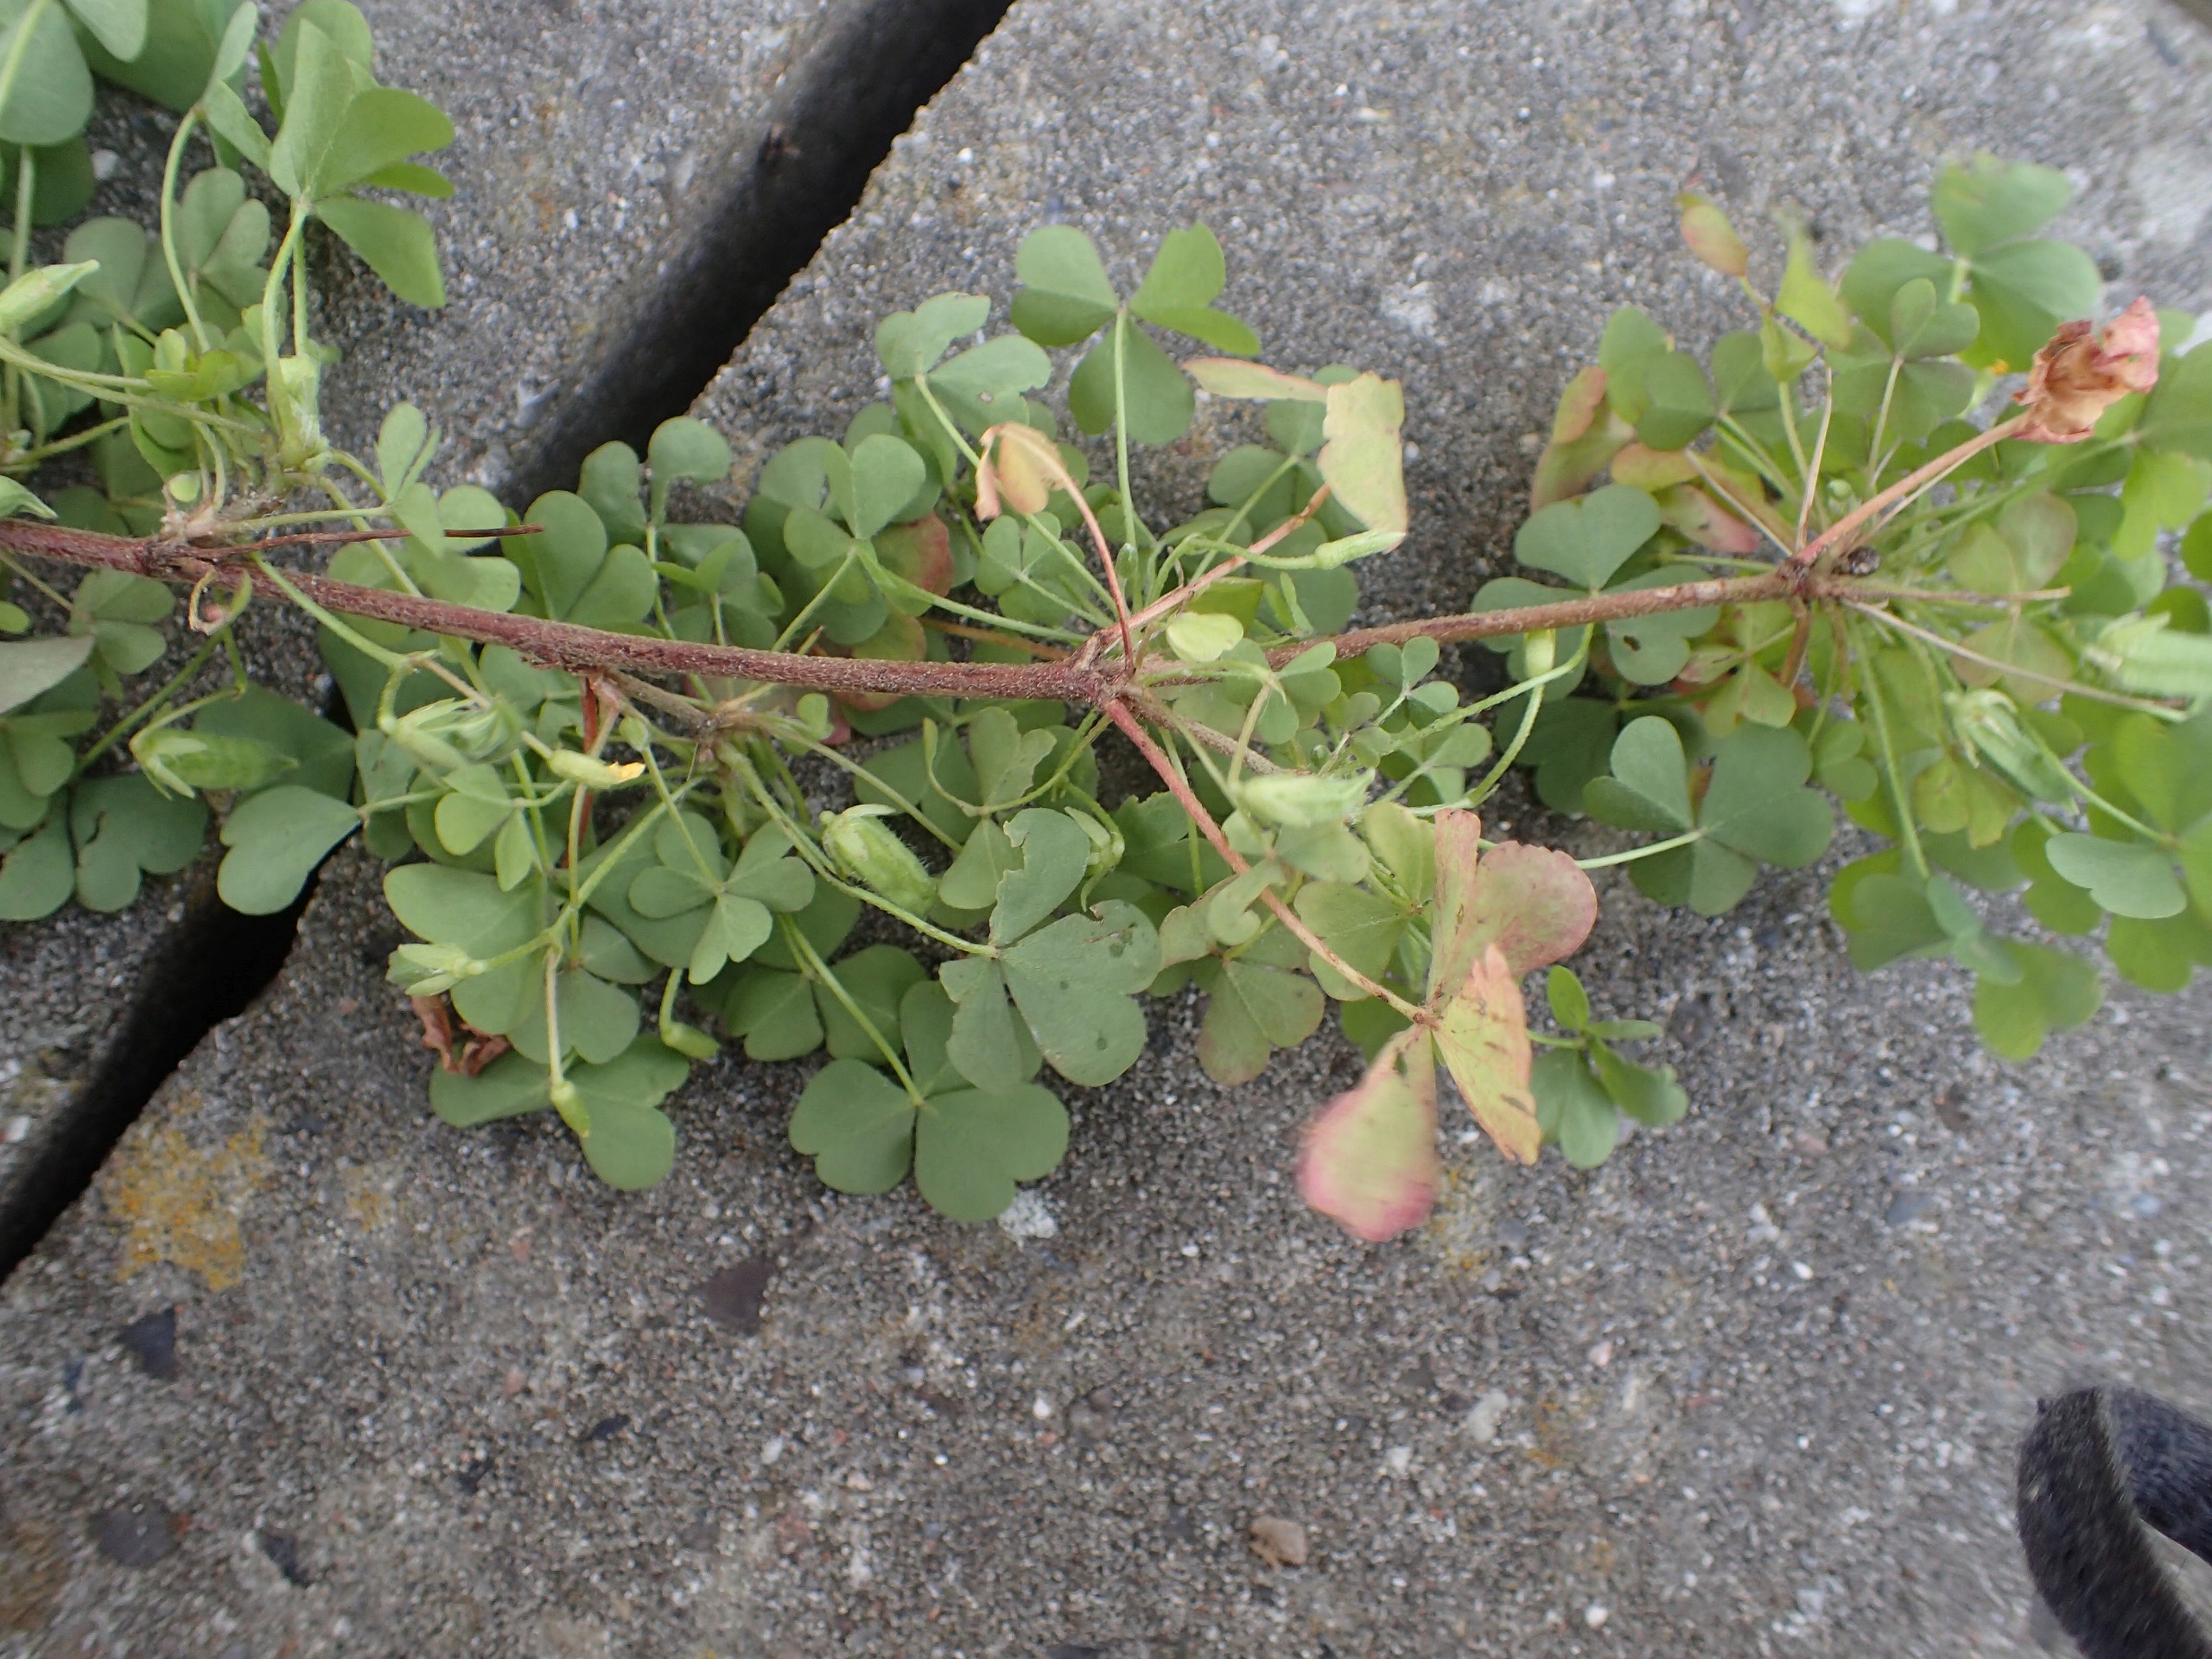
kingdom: Plantae
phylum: Tracheophyta
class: Magnoliopsida
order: Oxalidales
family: Oxalidaceae
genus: Oxalis
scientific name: Oxalis corniculata
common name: Nedliggende surkløver
